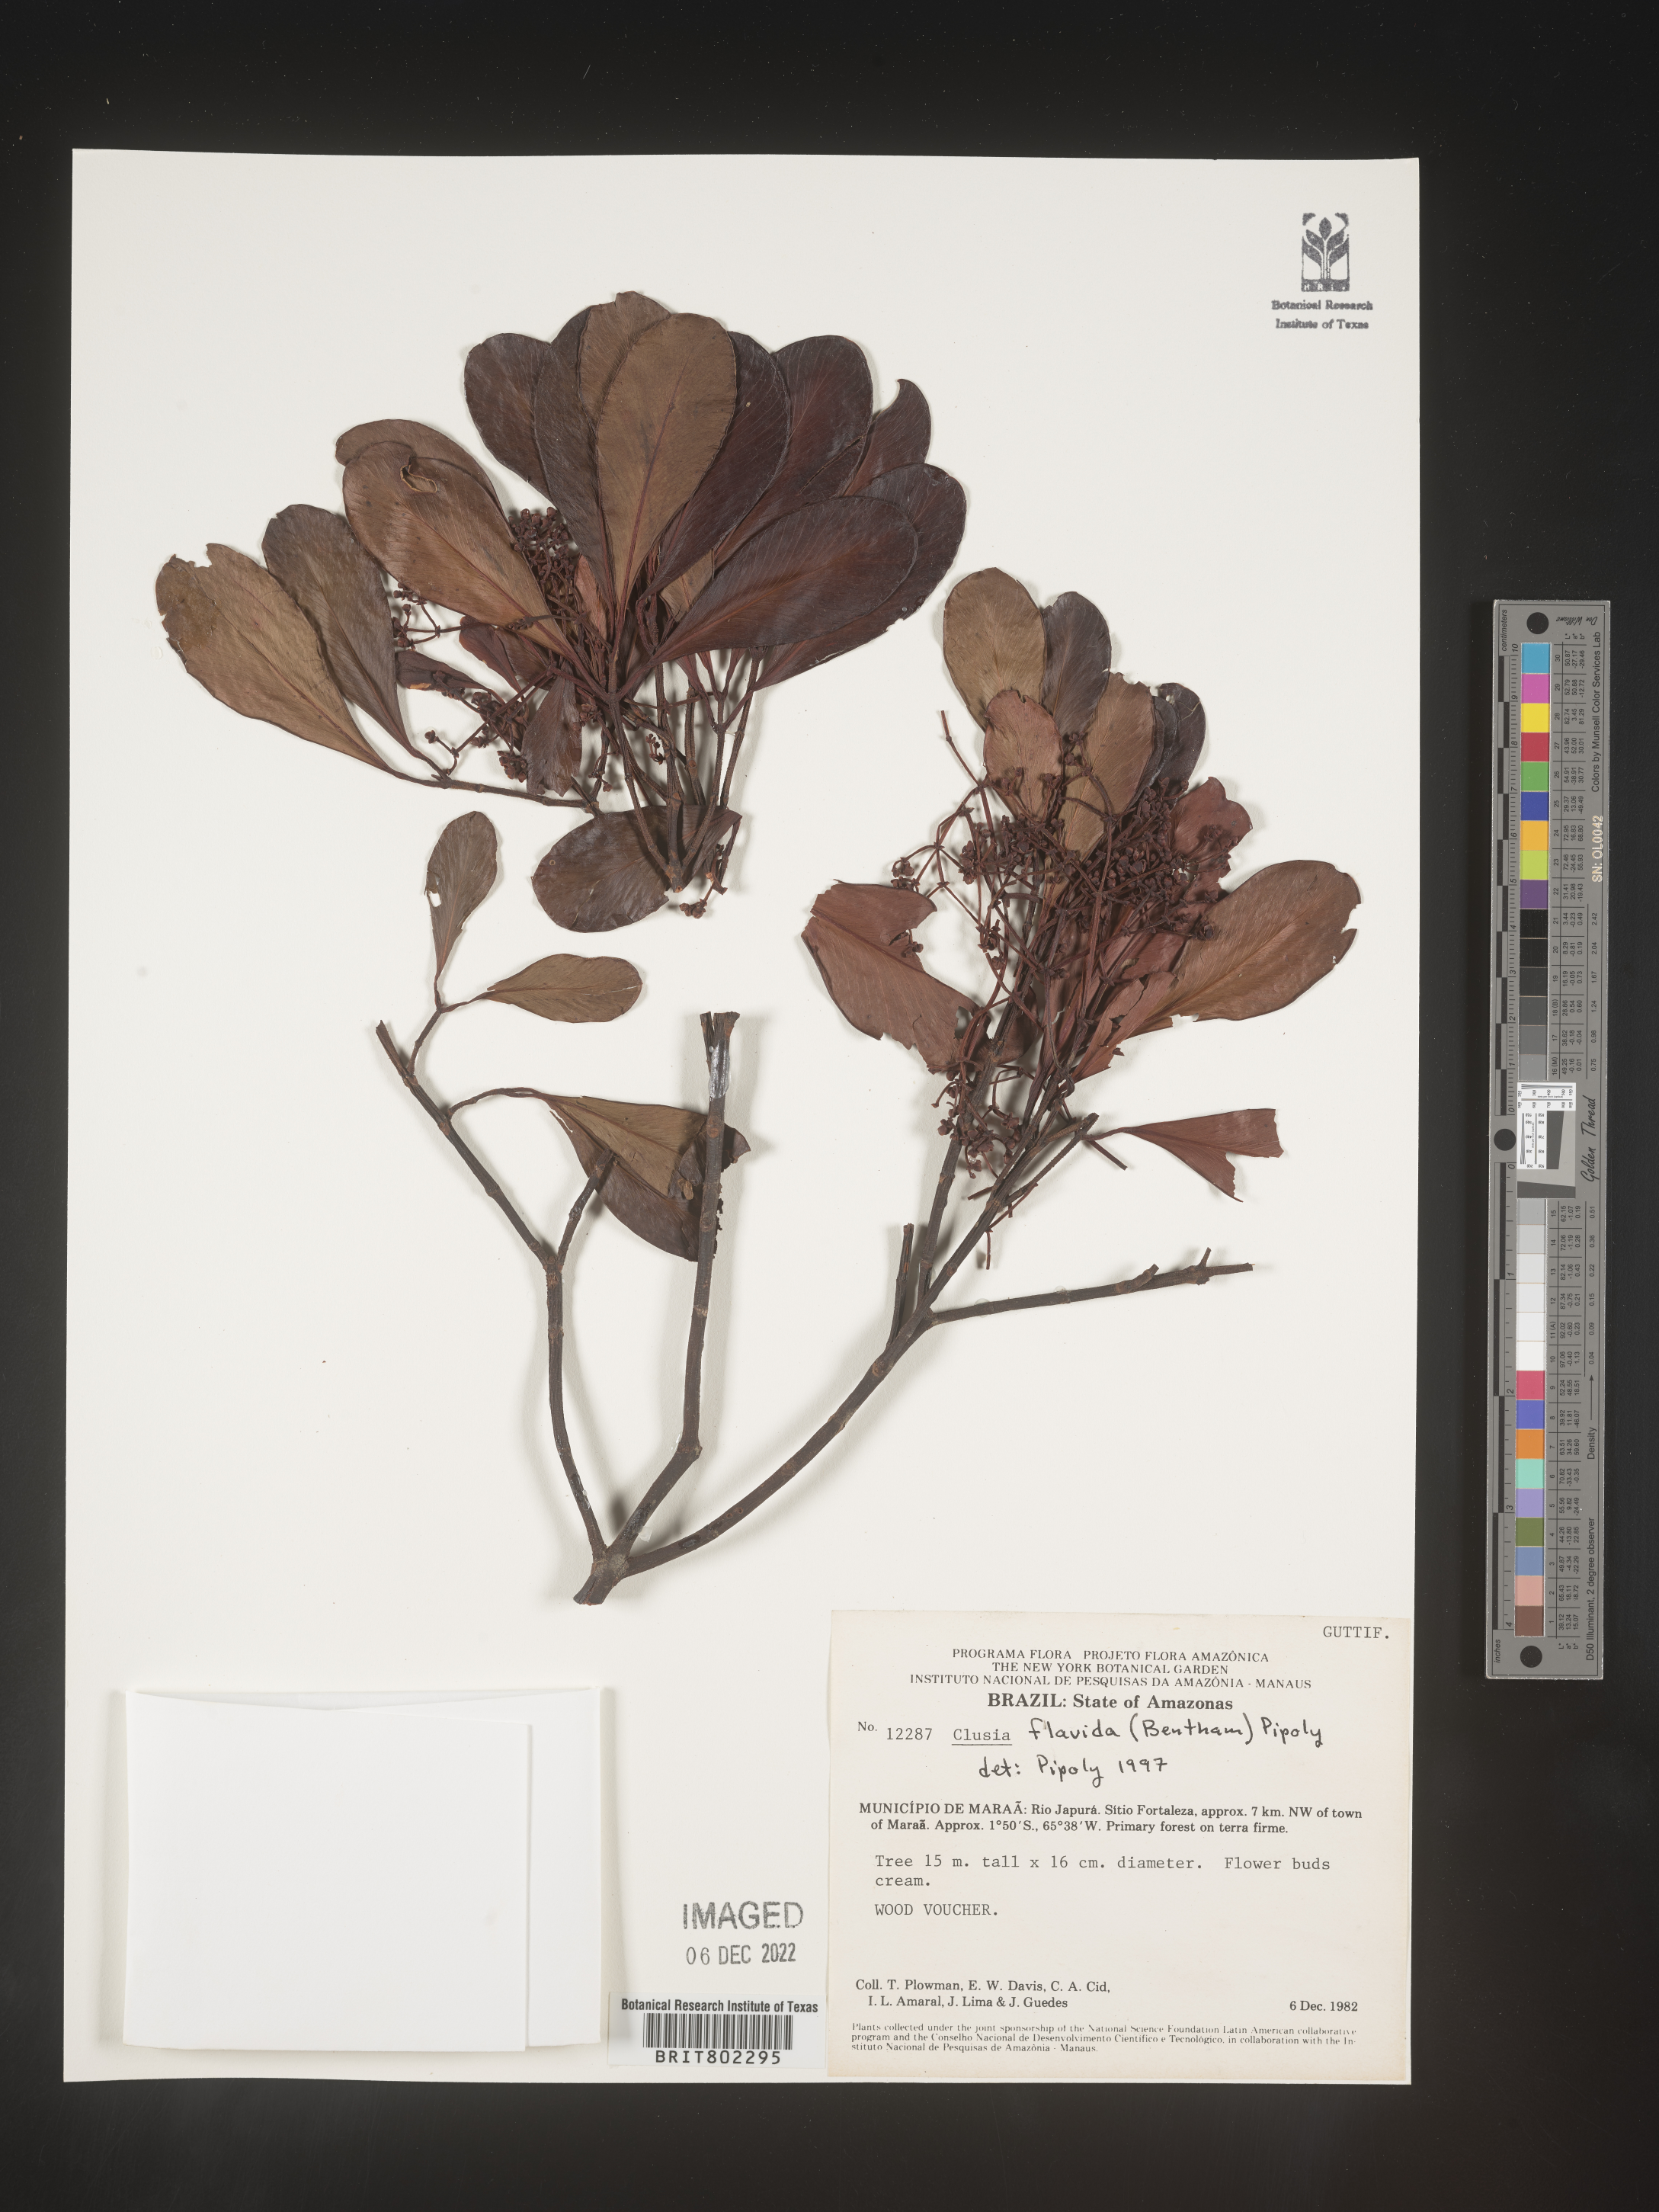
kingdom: Plantae
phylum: Tracheophyta
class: Magnoliopsida
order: Malpighiales
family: Clusiaceae
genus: Clusia
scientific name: Clusia flavida
